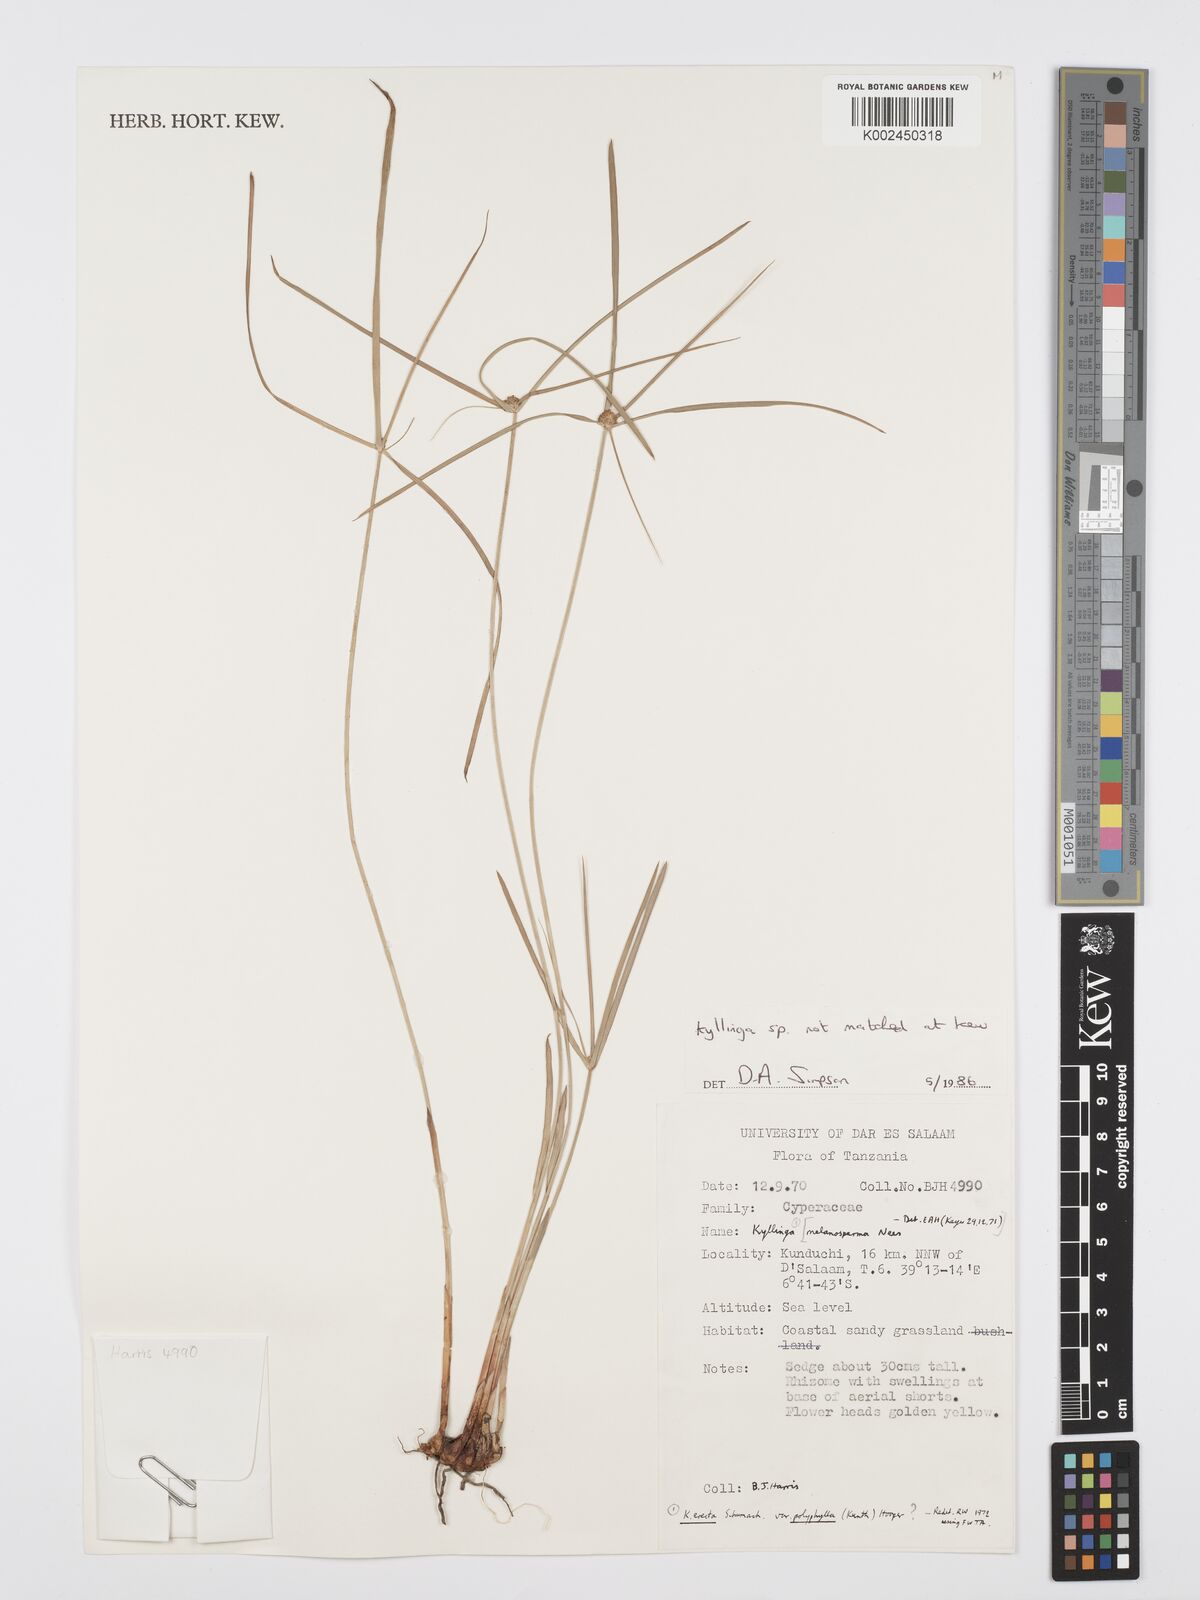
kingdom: Plantae
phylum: Tracheophyta
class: Liliopsida
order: Poales
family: Cyperaceae
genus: Cyperus
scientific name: Cyperus
